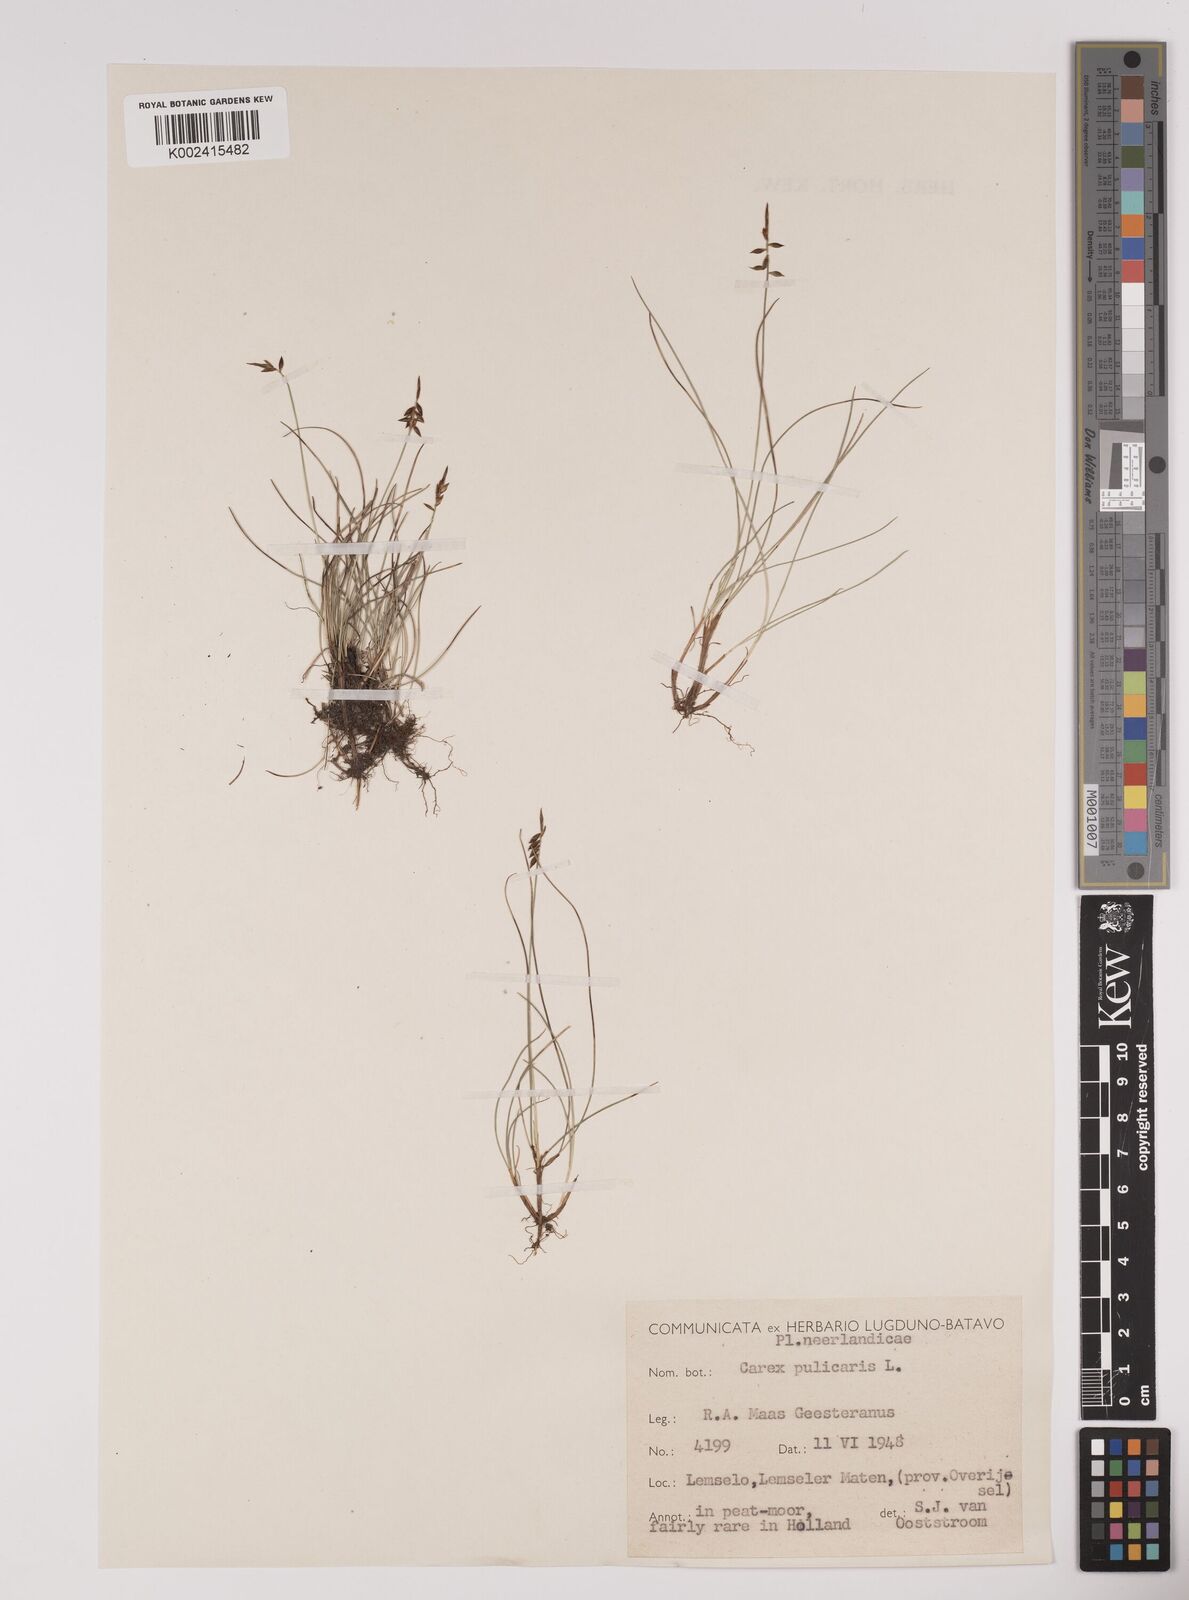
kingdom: Plantae
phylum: Tracheophyta
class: Liliopsida
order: Poales
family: Cyperaceae
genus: Carex
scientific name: Carex pulicaris
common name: Flea sedge
